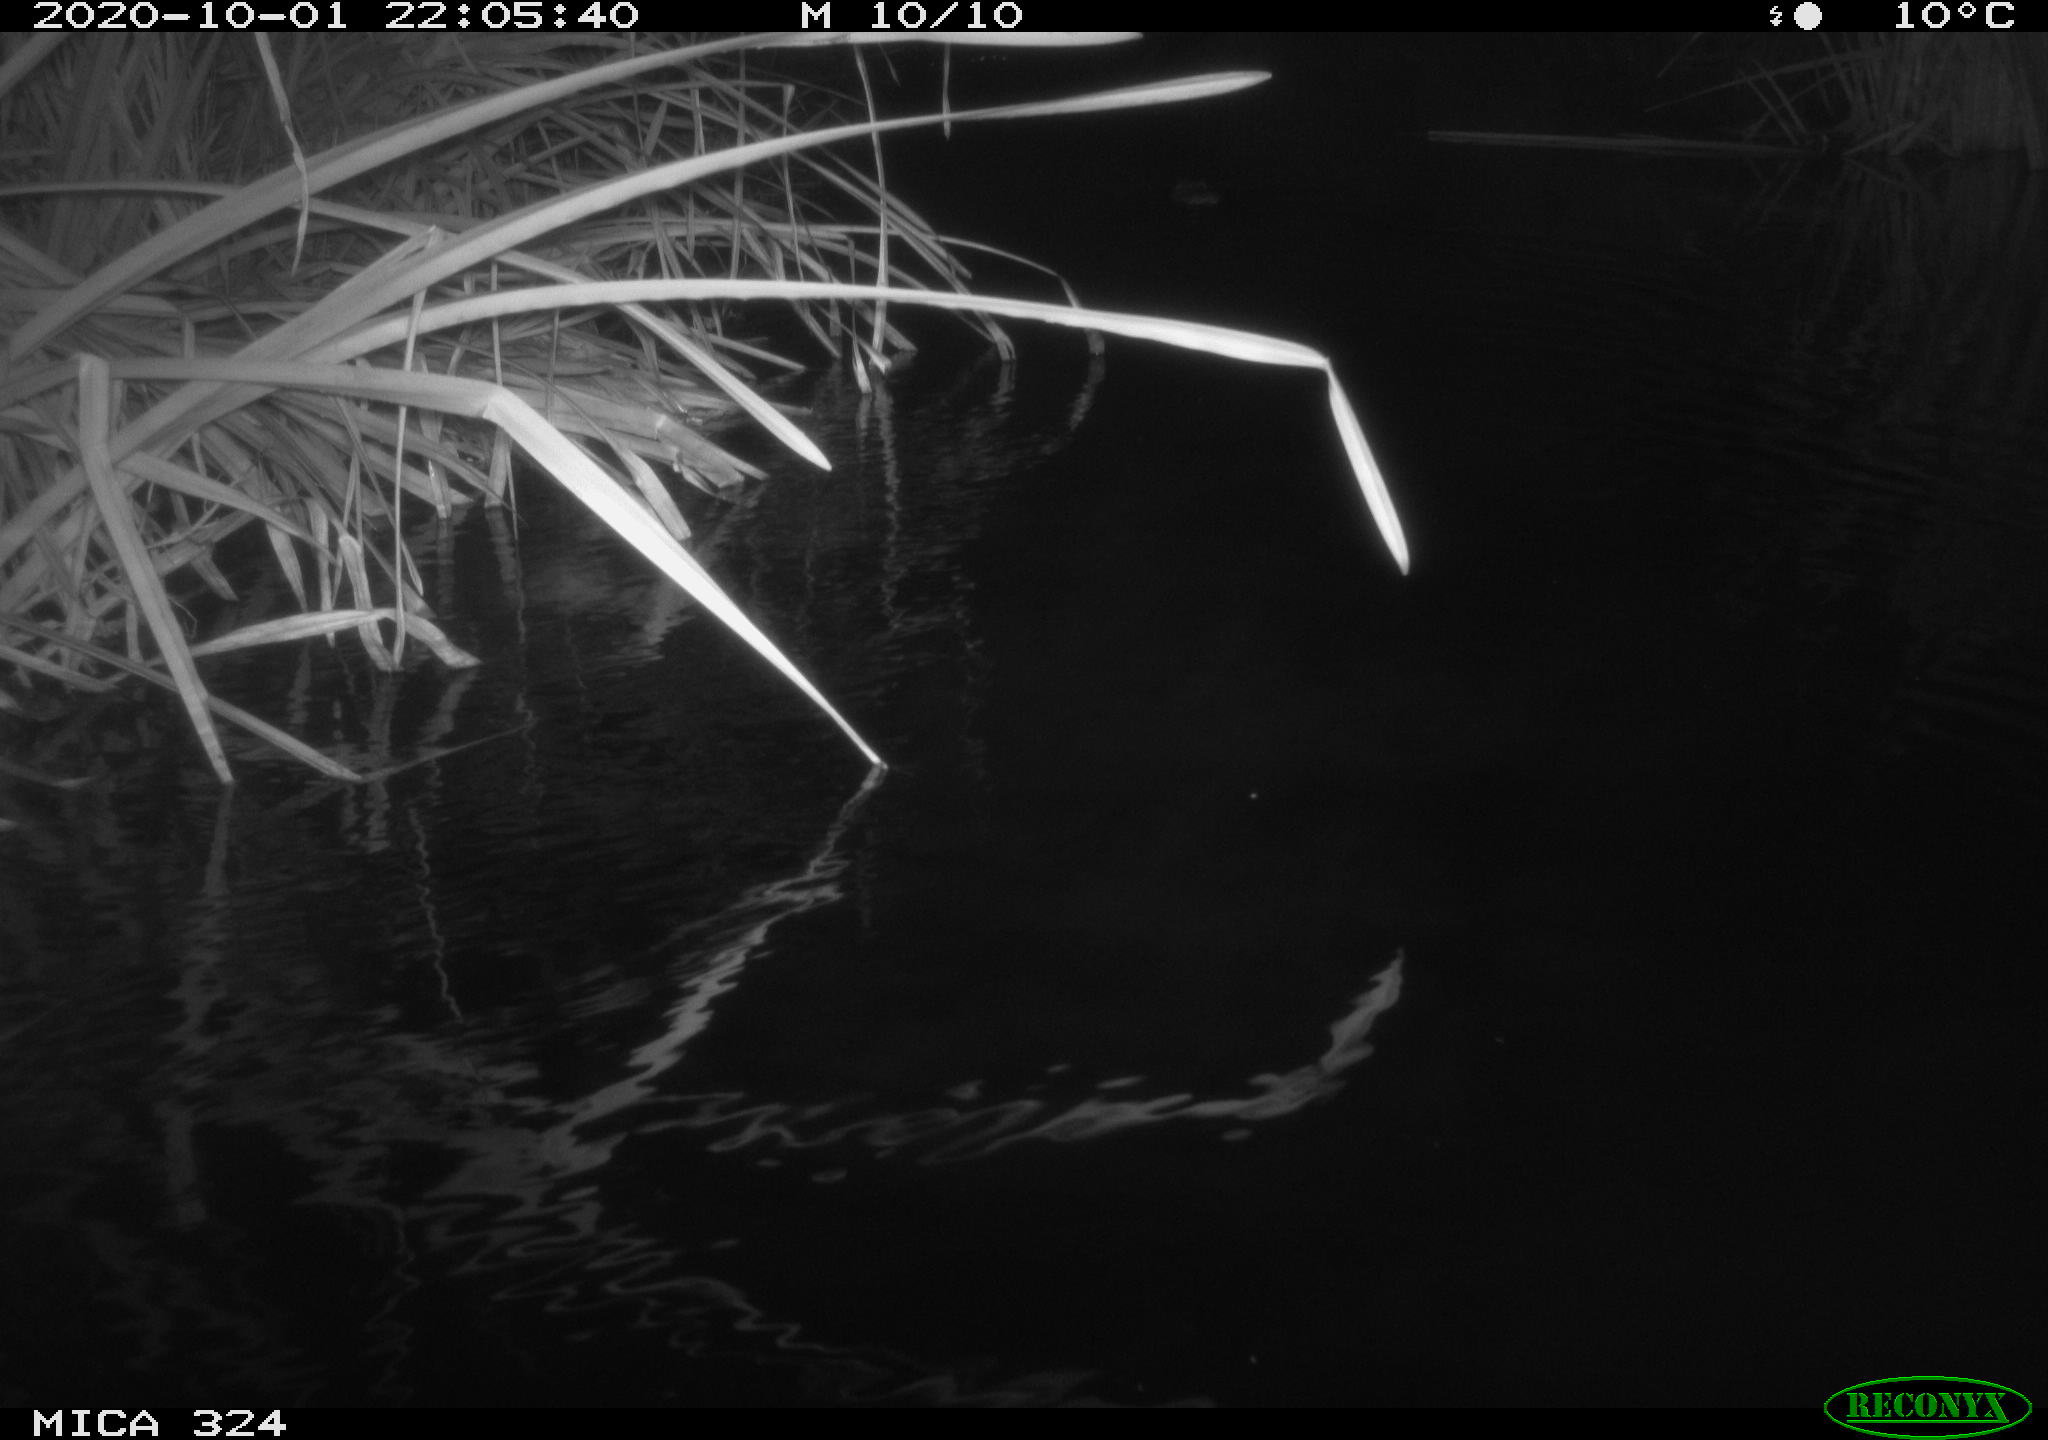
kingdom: Animalia
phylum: Chordata
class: Mammalia
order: Rodentia
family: Cricetidae
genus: Ondatra
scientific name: Ondatra zibethicus
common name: Muskrat
